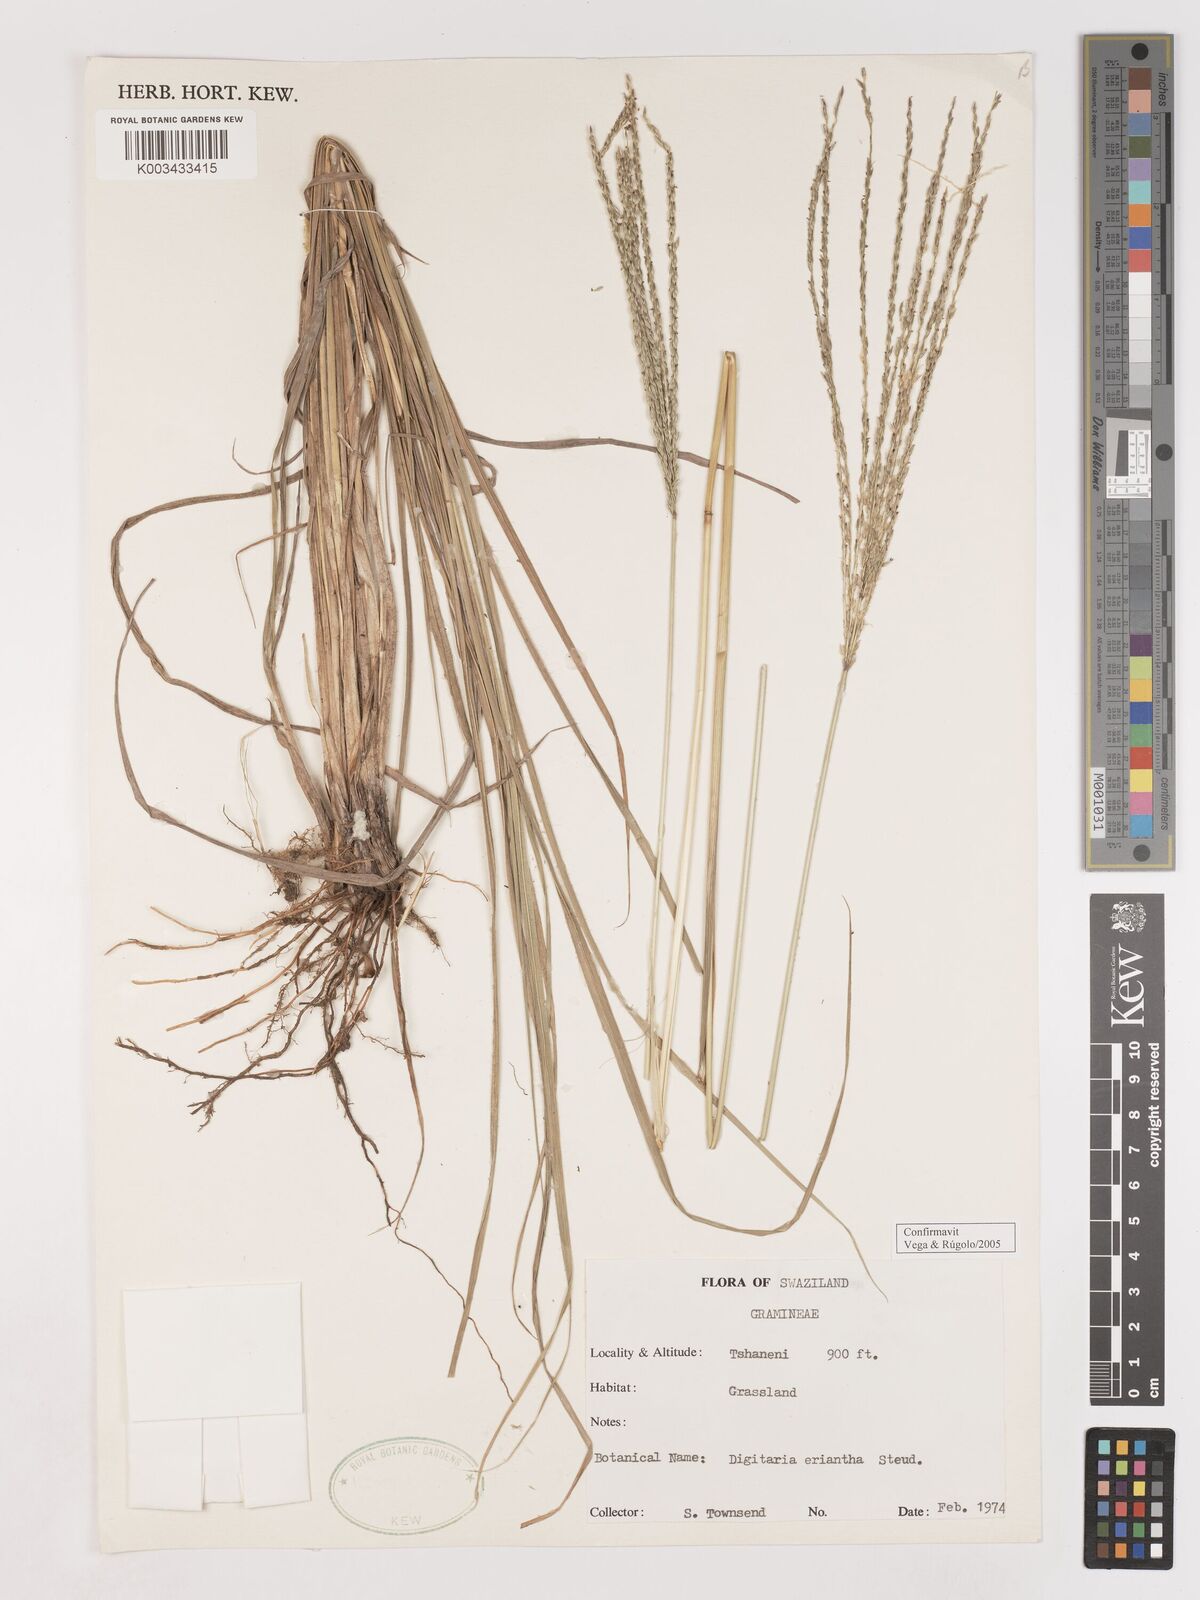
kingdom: Plantae
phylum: Tracheophyta
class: Liliopsida
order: Poales
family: Poaceae
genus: Digitaria
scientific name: Digitaria eriantha
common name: Digitgrass
